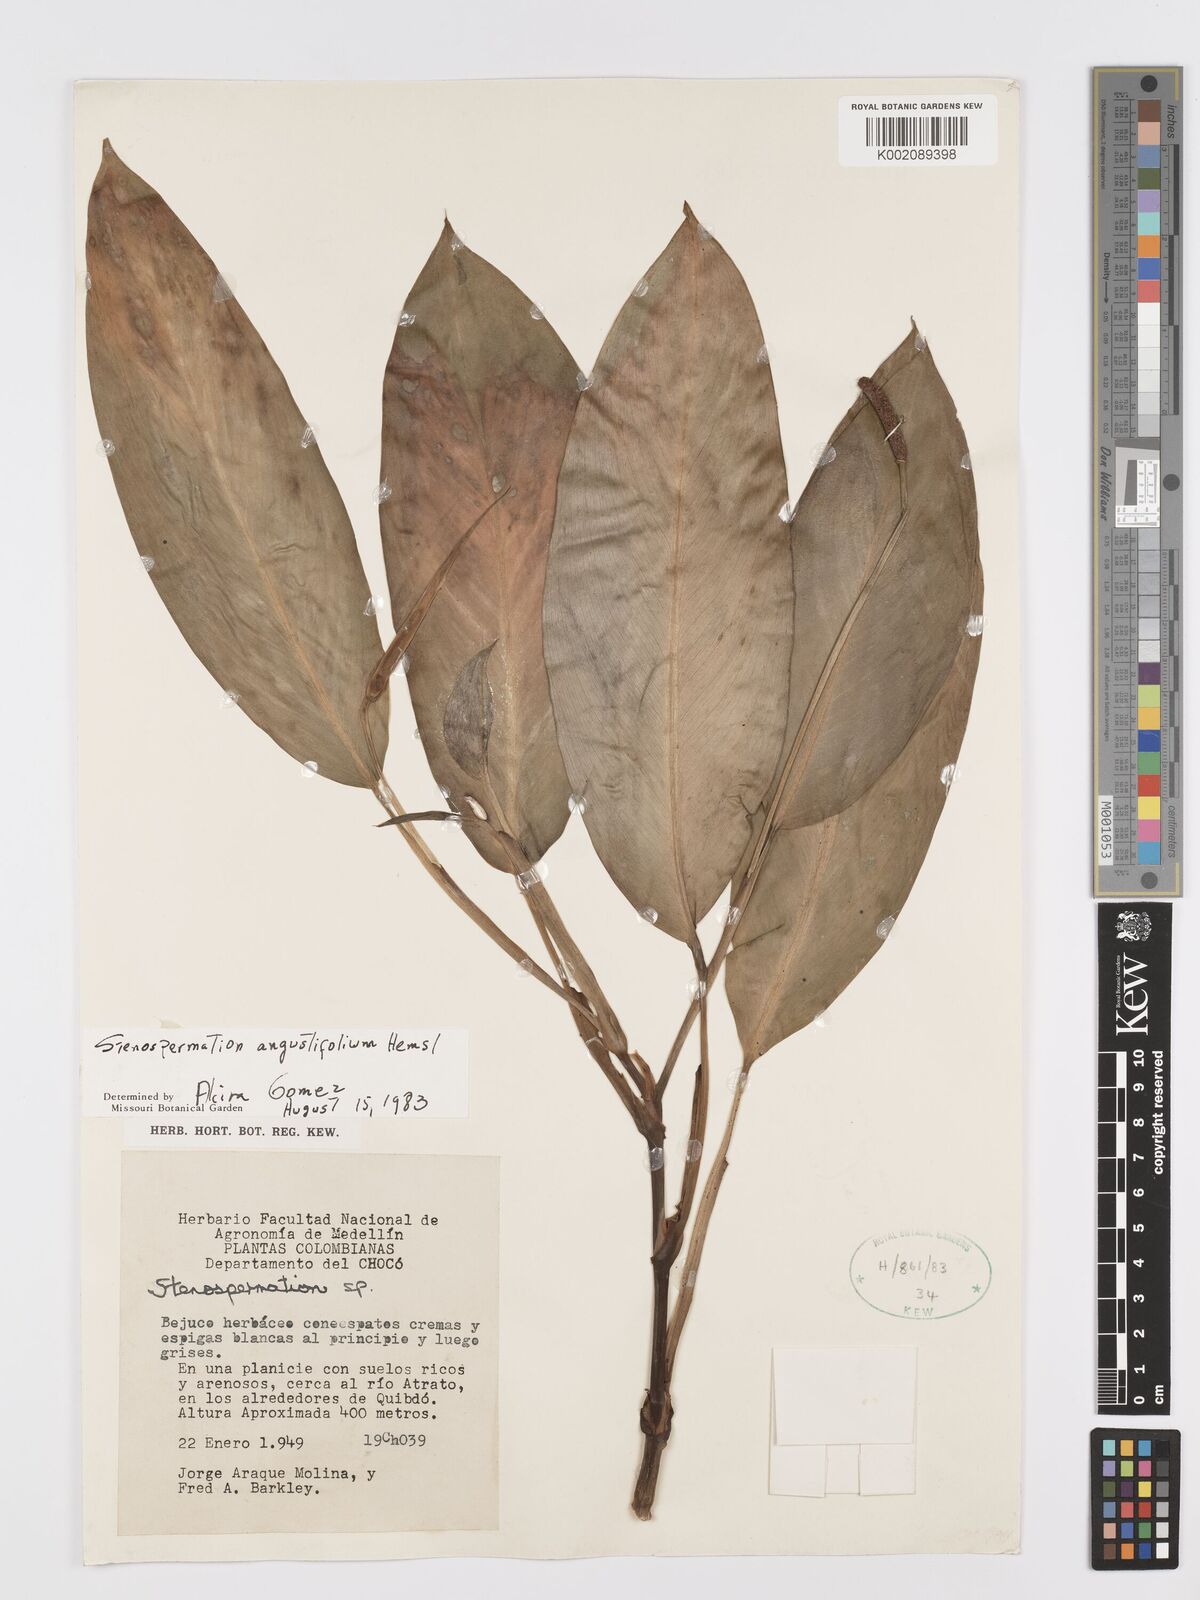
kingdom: Plantae
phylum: Tracheophyta
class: Liliopsida
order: Alismatales
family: Araceae
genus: Stenospermation
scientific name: Stenospermation angustifolium
